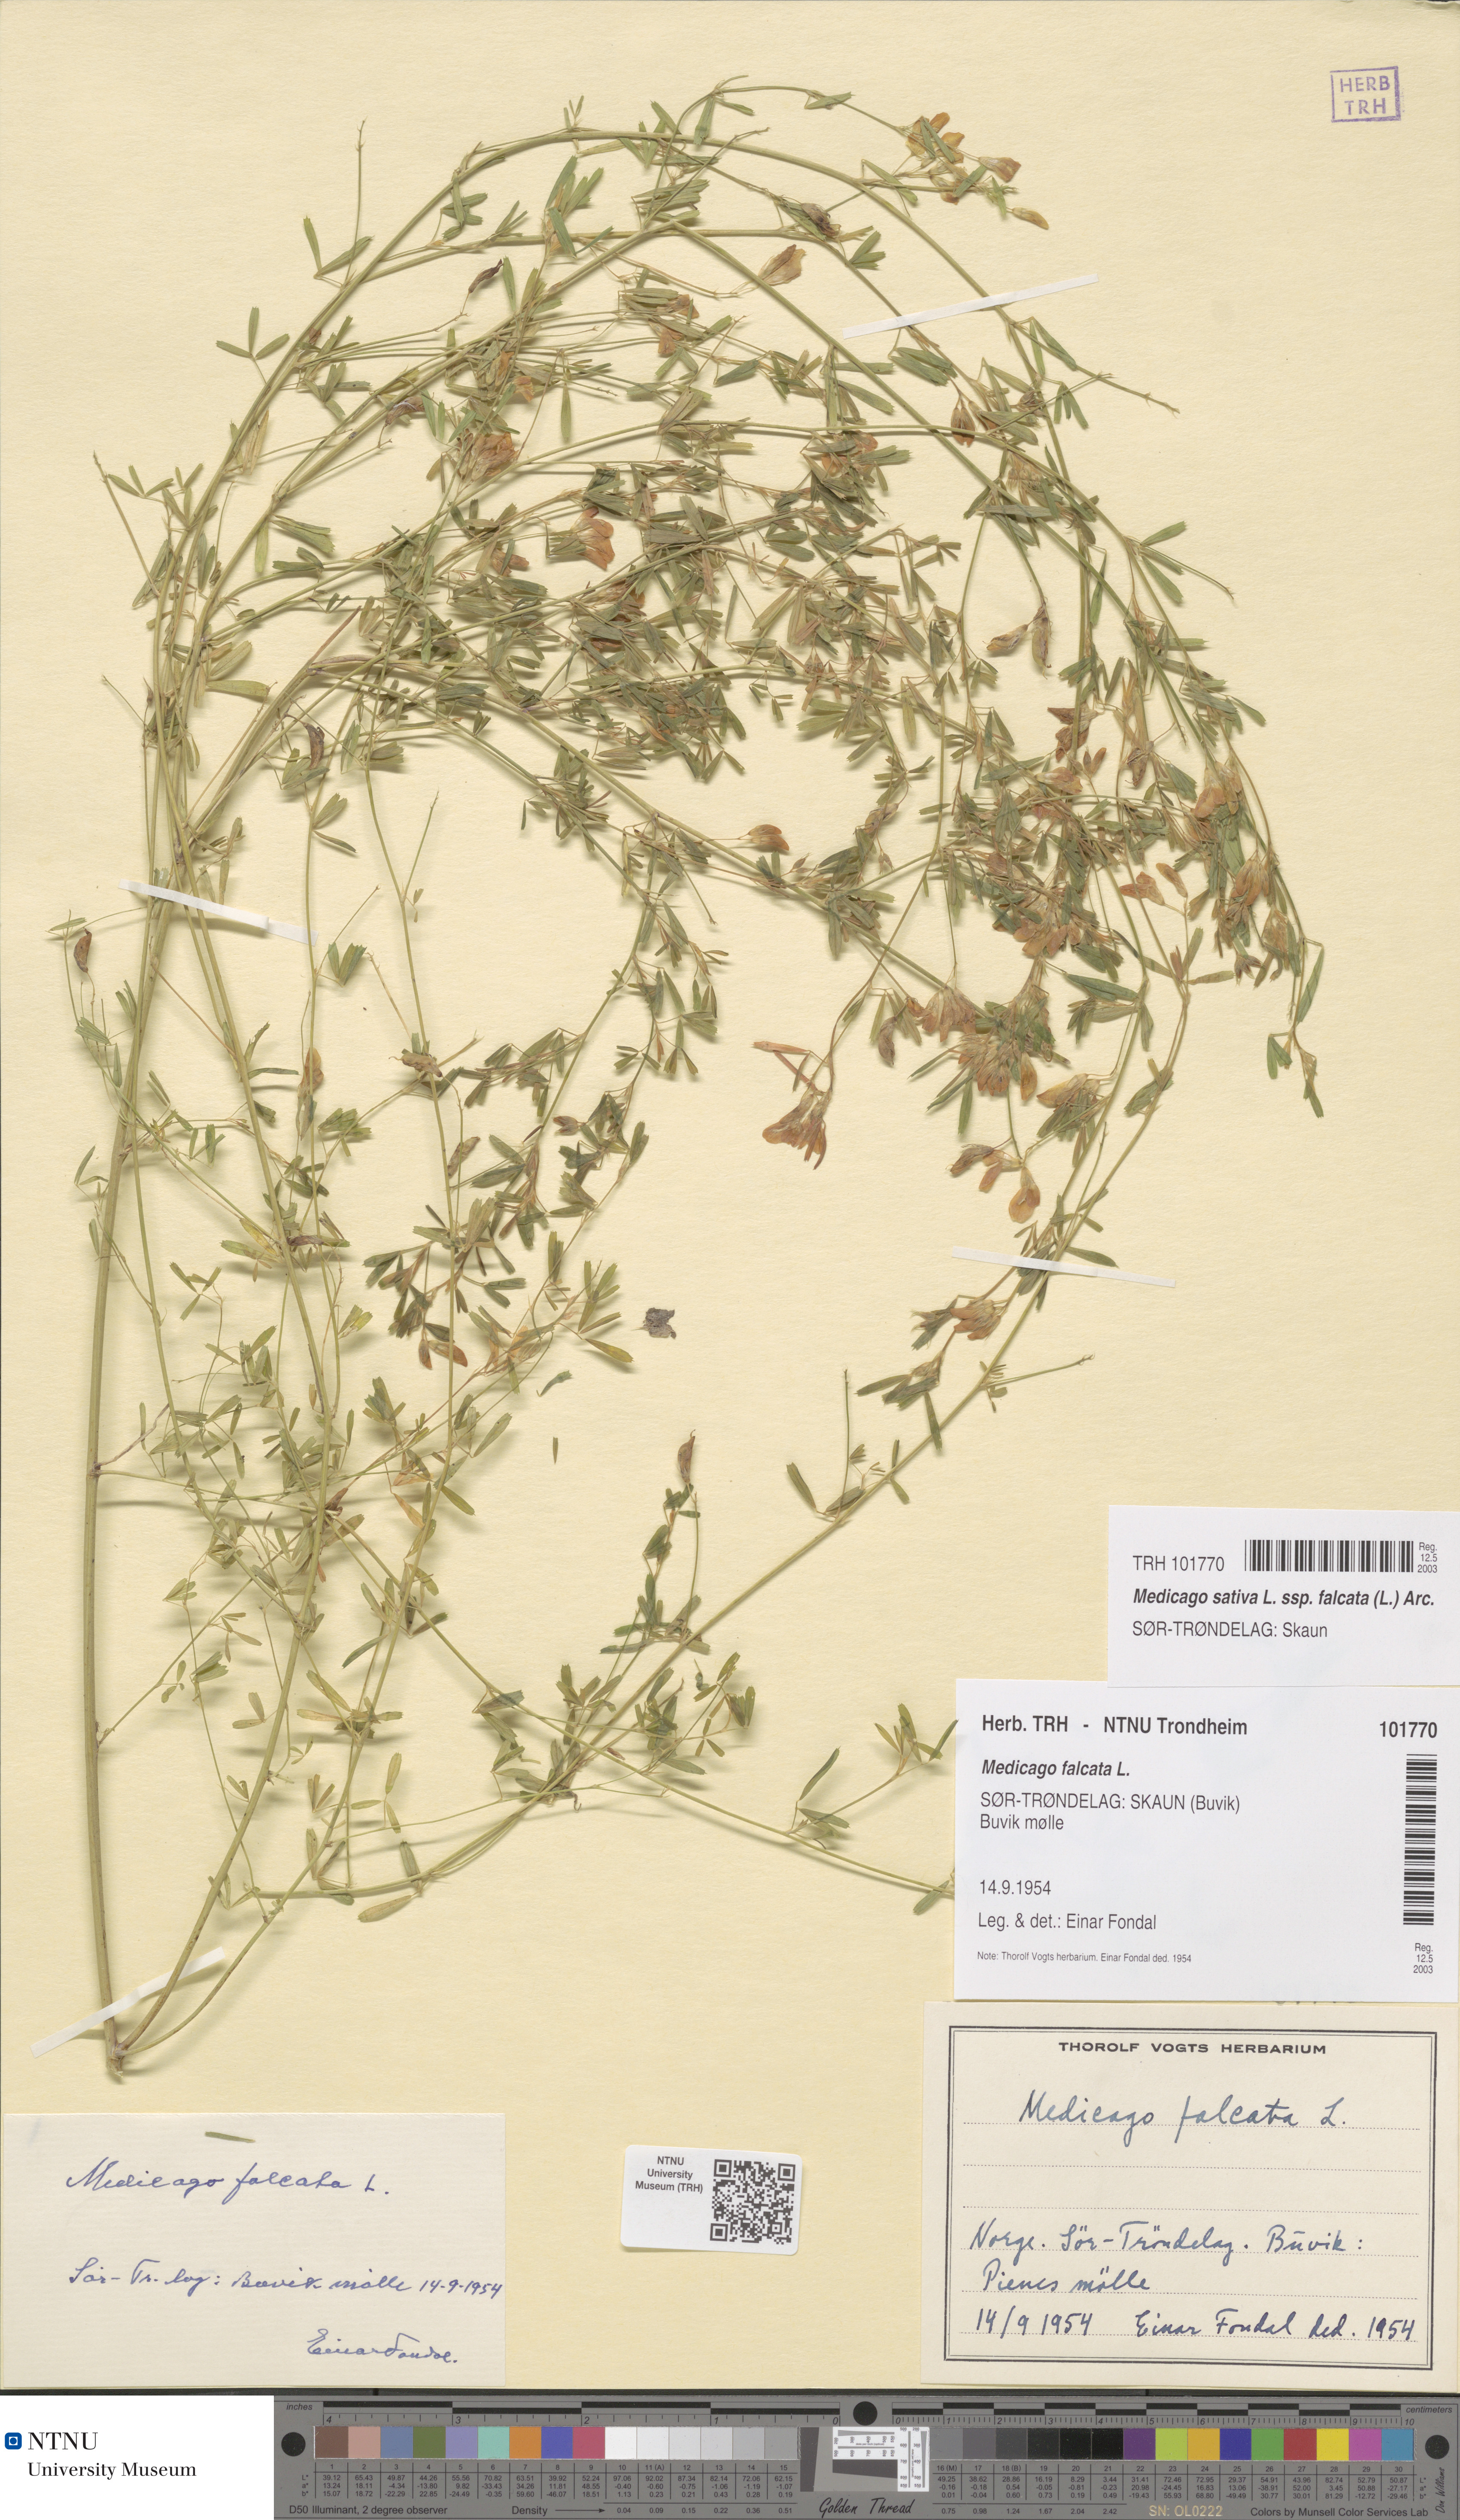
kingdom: Plantae
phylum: Tracheophyta
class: Magnoliopsida
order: Fabales
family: Fabaceae
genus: Medicago
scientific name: Medicago falcata
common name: Sickle medick
